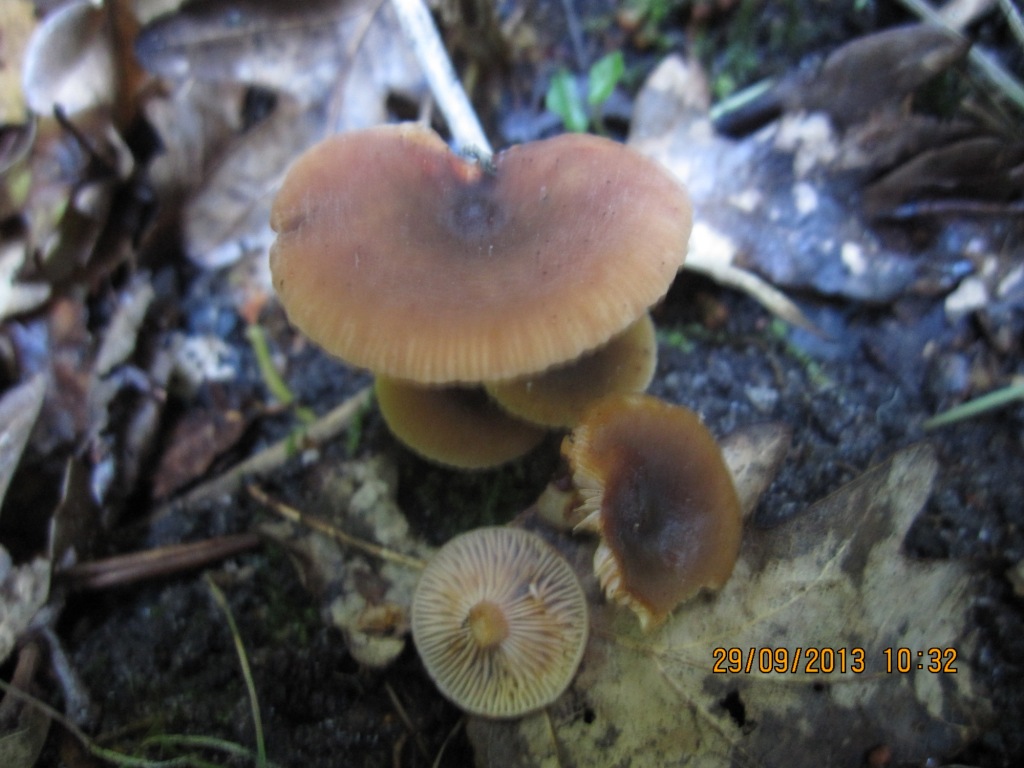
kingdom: Fungi
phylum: Basidiomycota
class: Agaricomycetes
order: Russulales
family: Russulaceae
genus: Lactarius
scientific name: Lactarius cyathuliformis
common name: mørkøjet mælkehat
